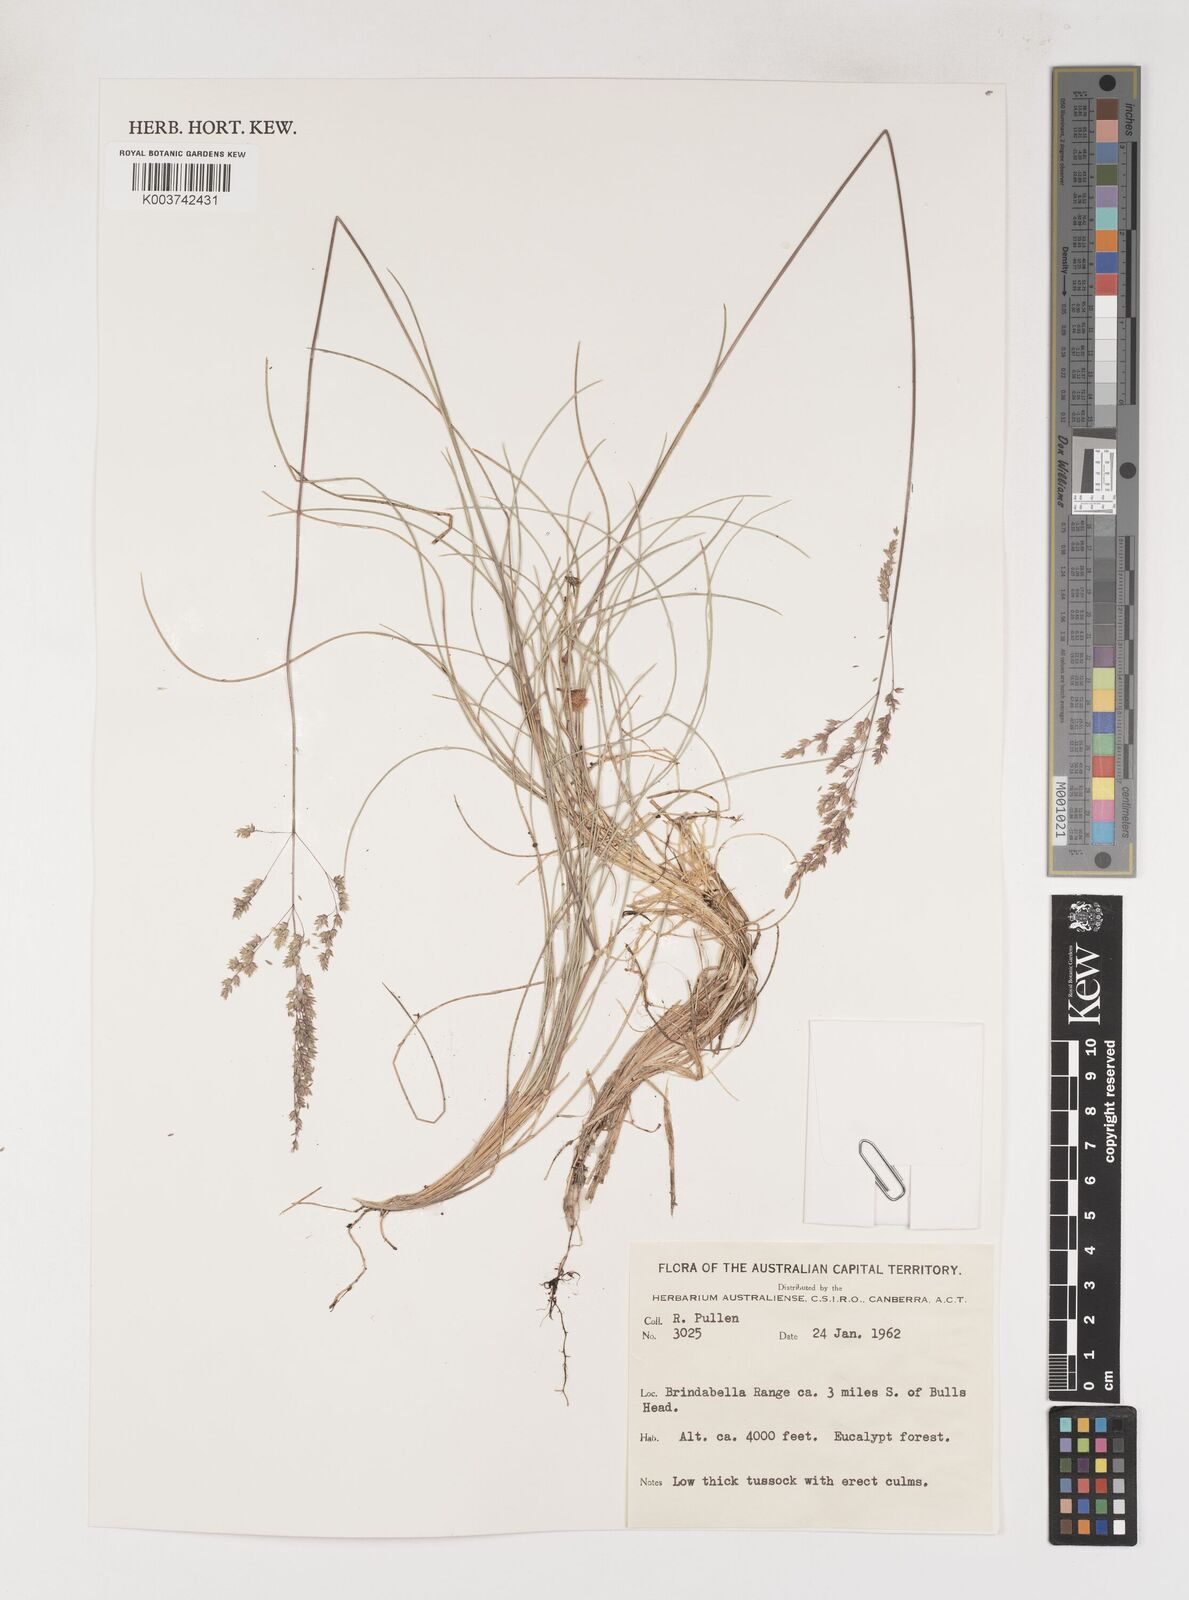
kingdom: Plantae
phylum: Tracheophyta
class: Liliopsida
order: Poales
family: Poaceae
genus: Poa
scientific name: Poa
